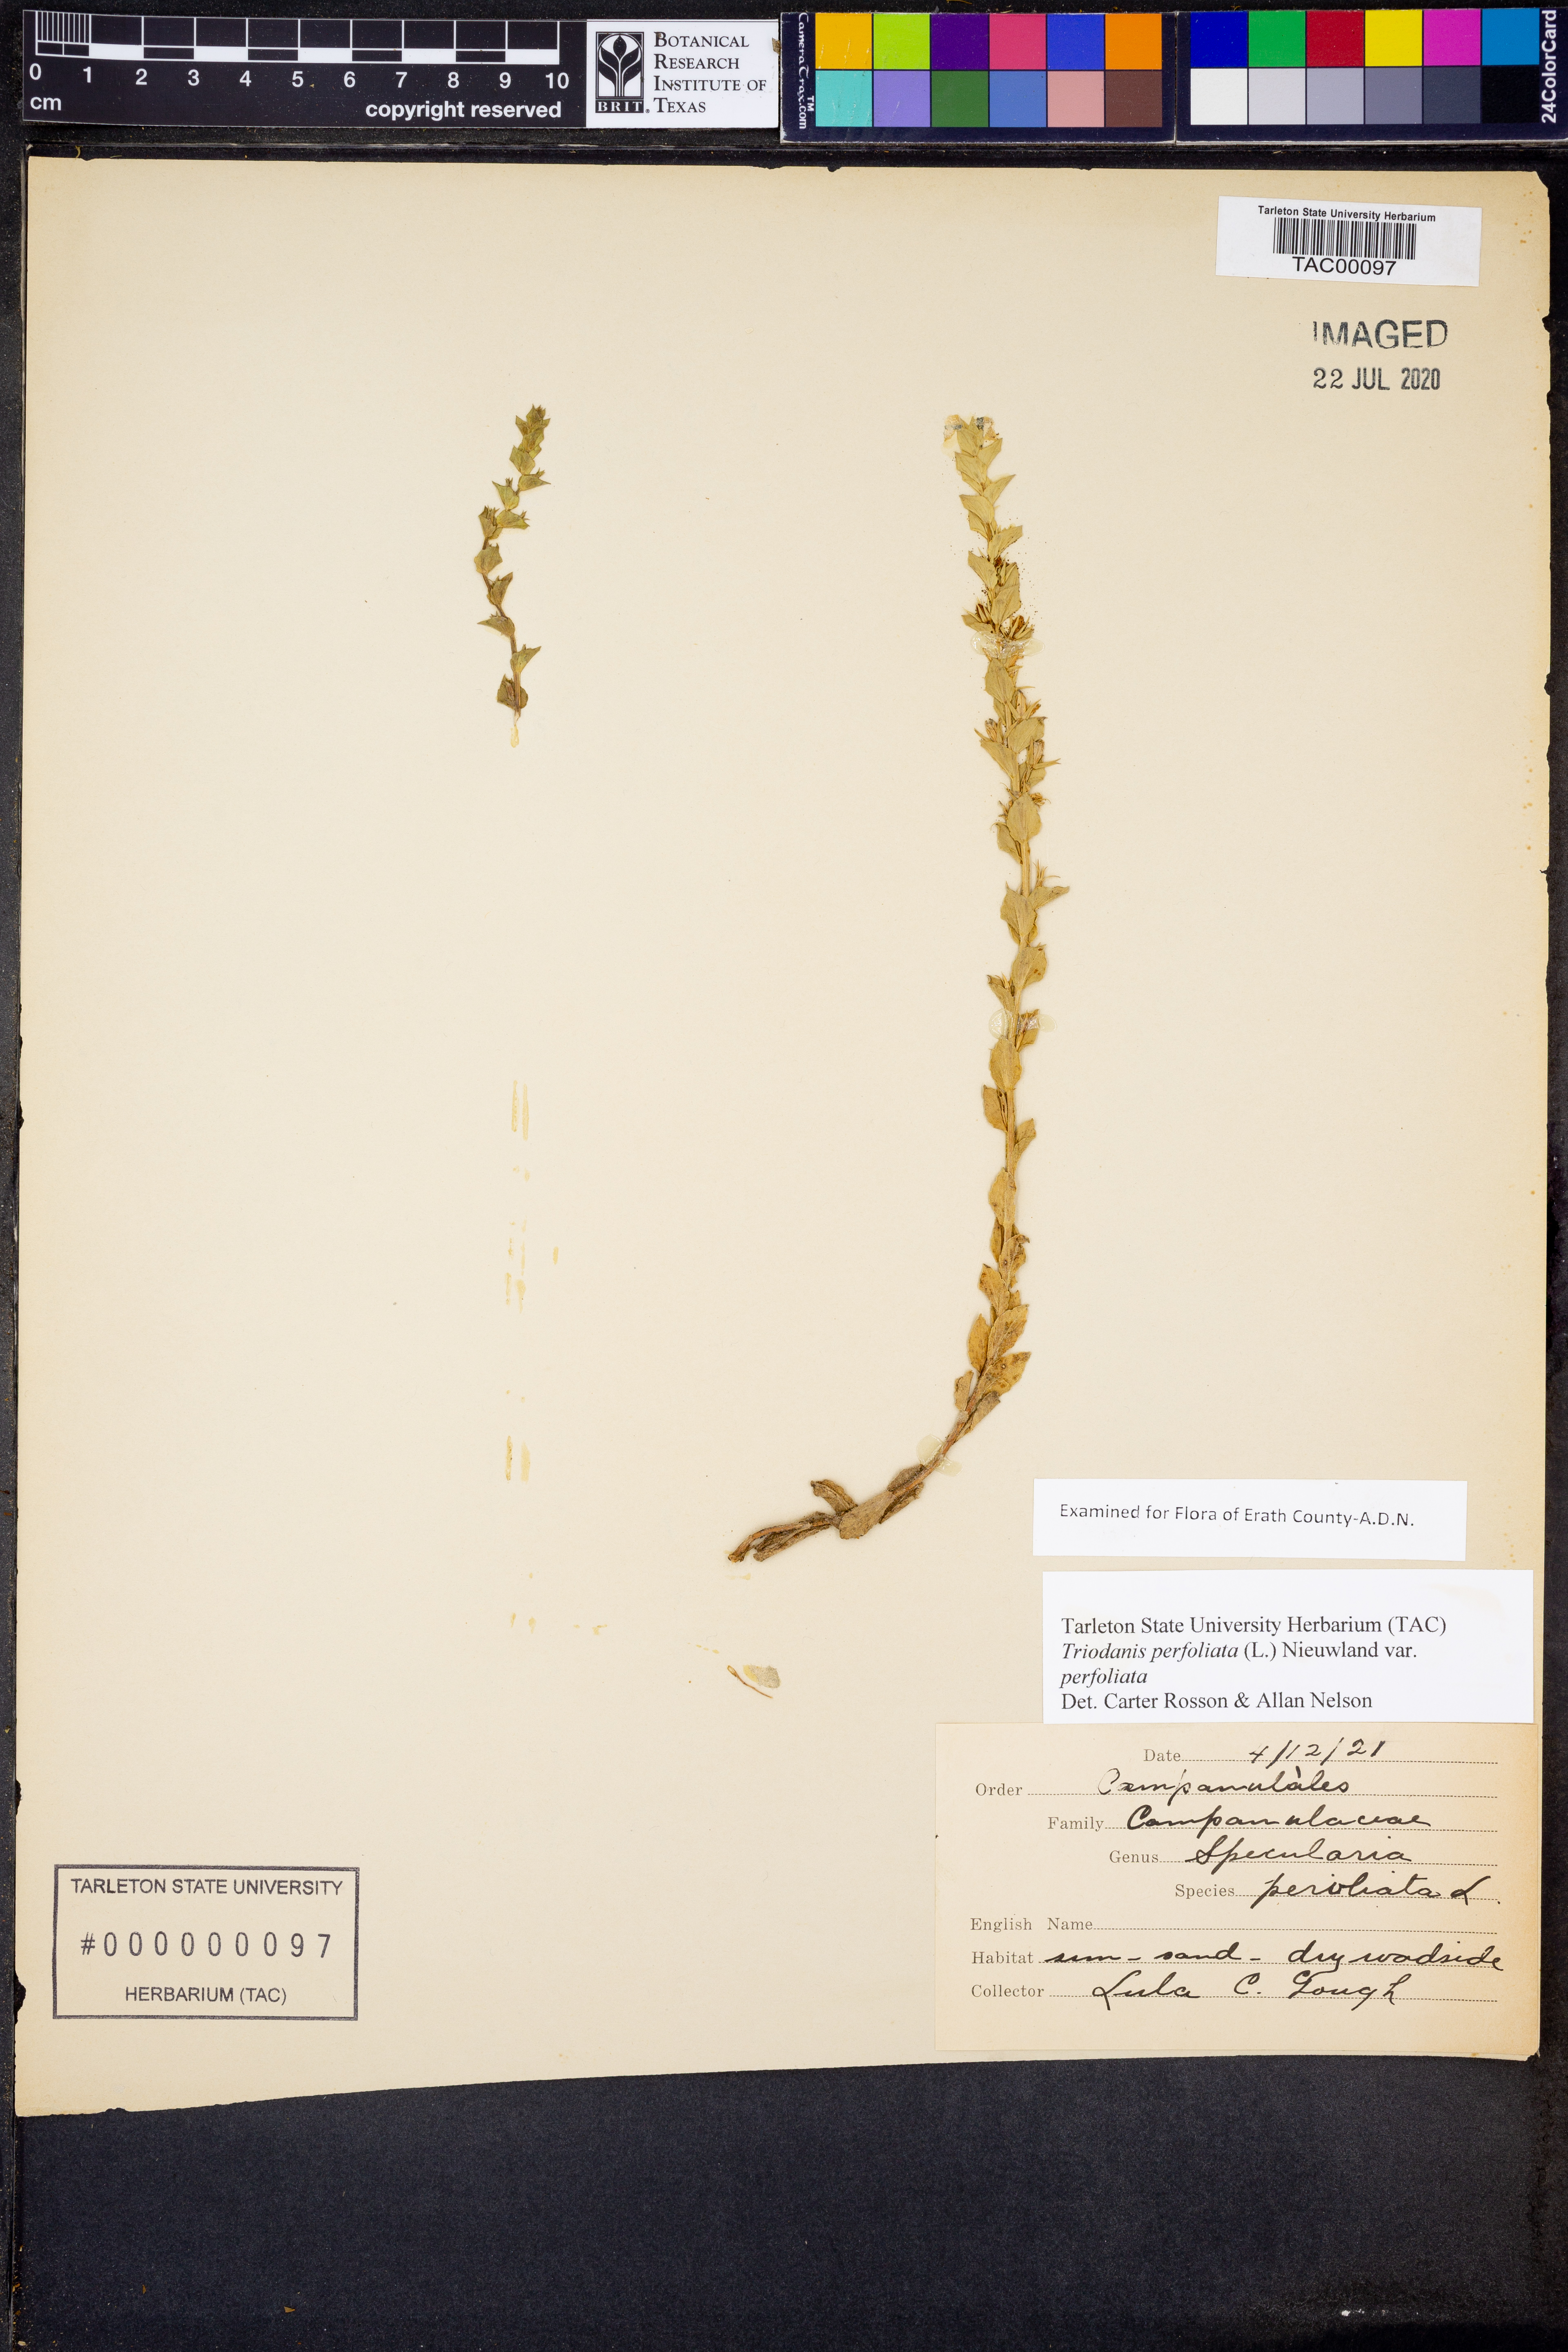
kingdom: Plantae
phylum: Tracheophyta
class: Magnoliopsida
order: Asterales
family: Campanulaceae
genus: Triodanis
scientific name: Triodanis perfoliata
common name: Clasping venus' looking-glass
